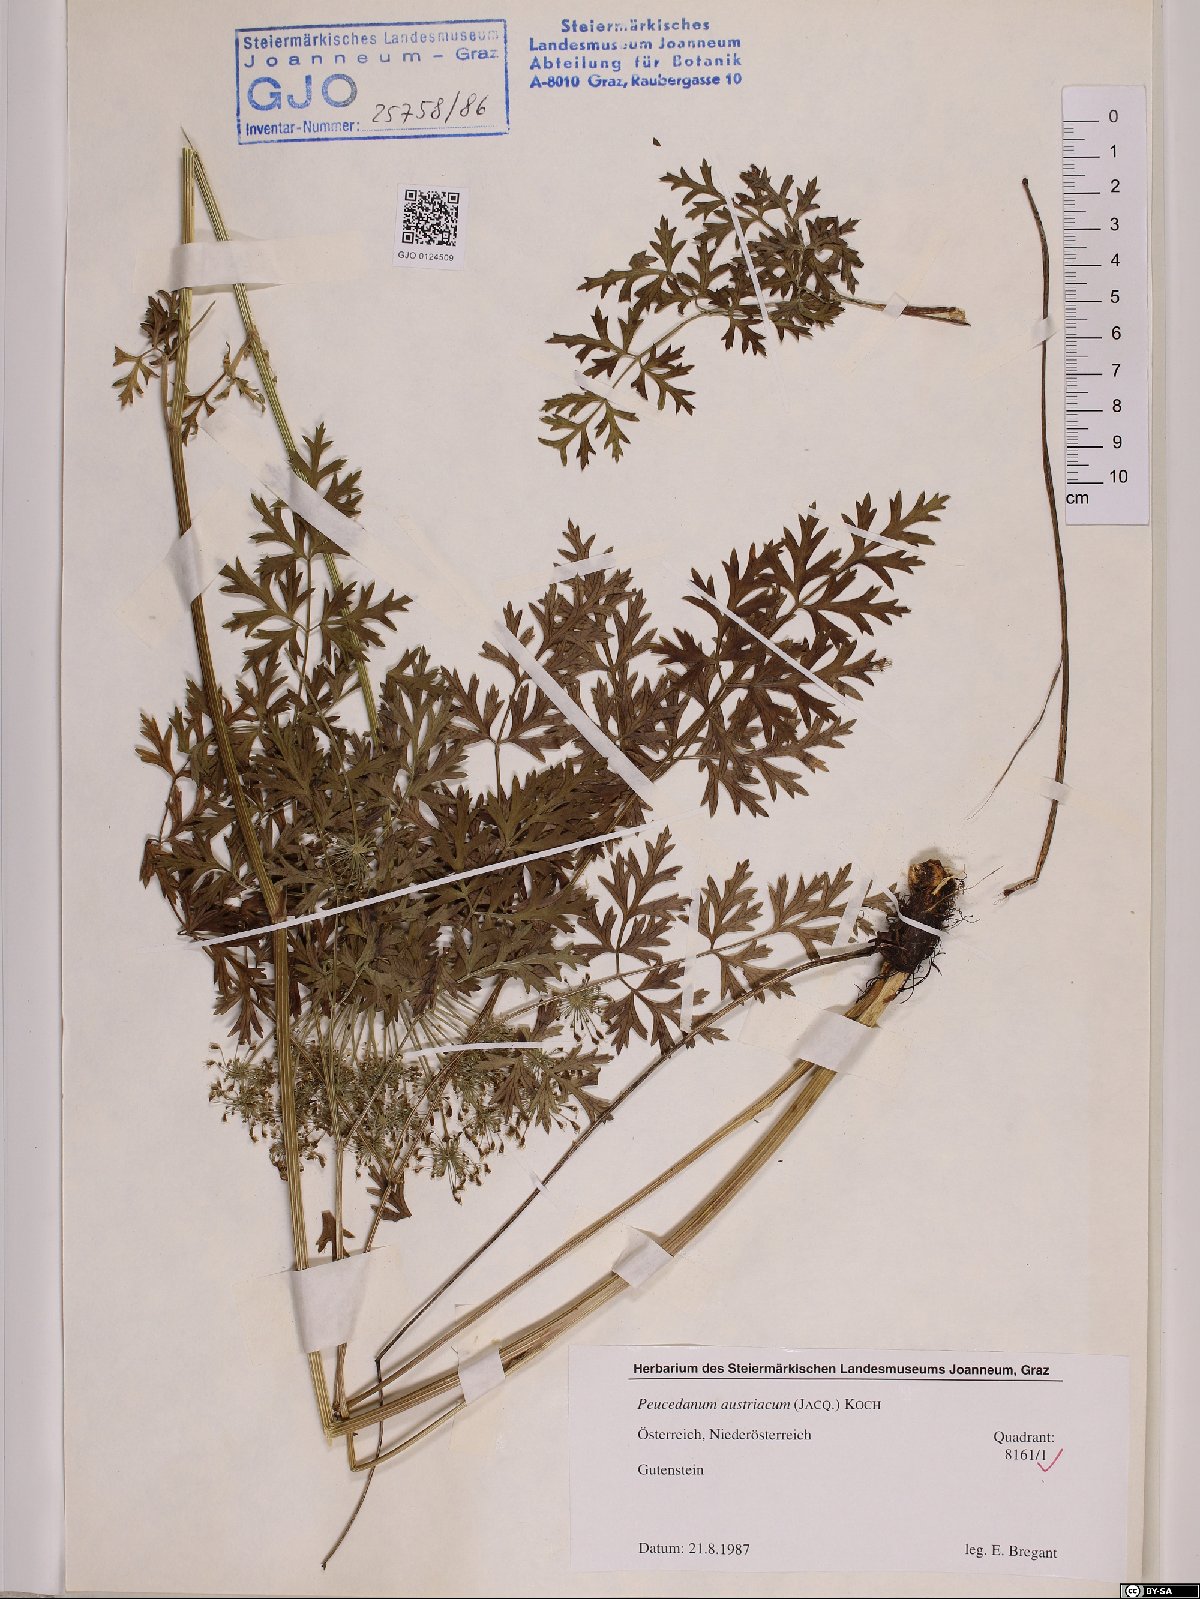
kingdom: Plantae
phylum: Tracheophyta
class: Magnoliopsida
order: Apiales
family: Apiaceae
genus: Peucedanum
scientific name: Peucedanum austriacum
